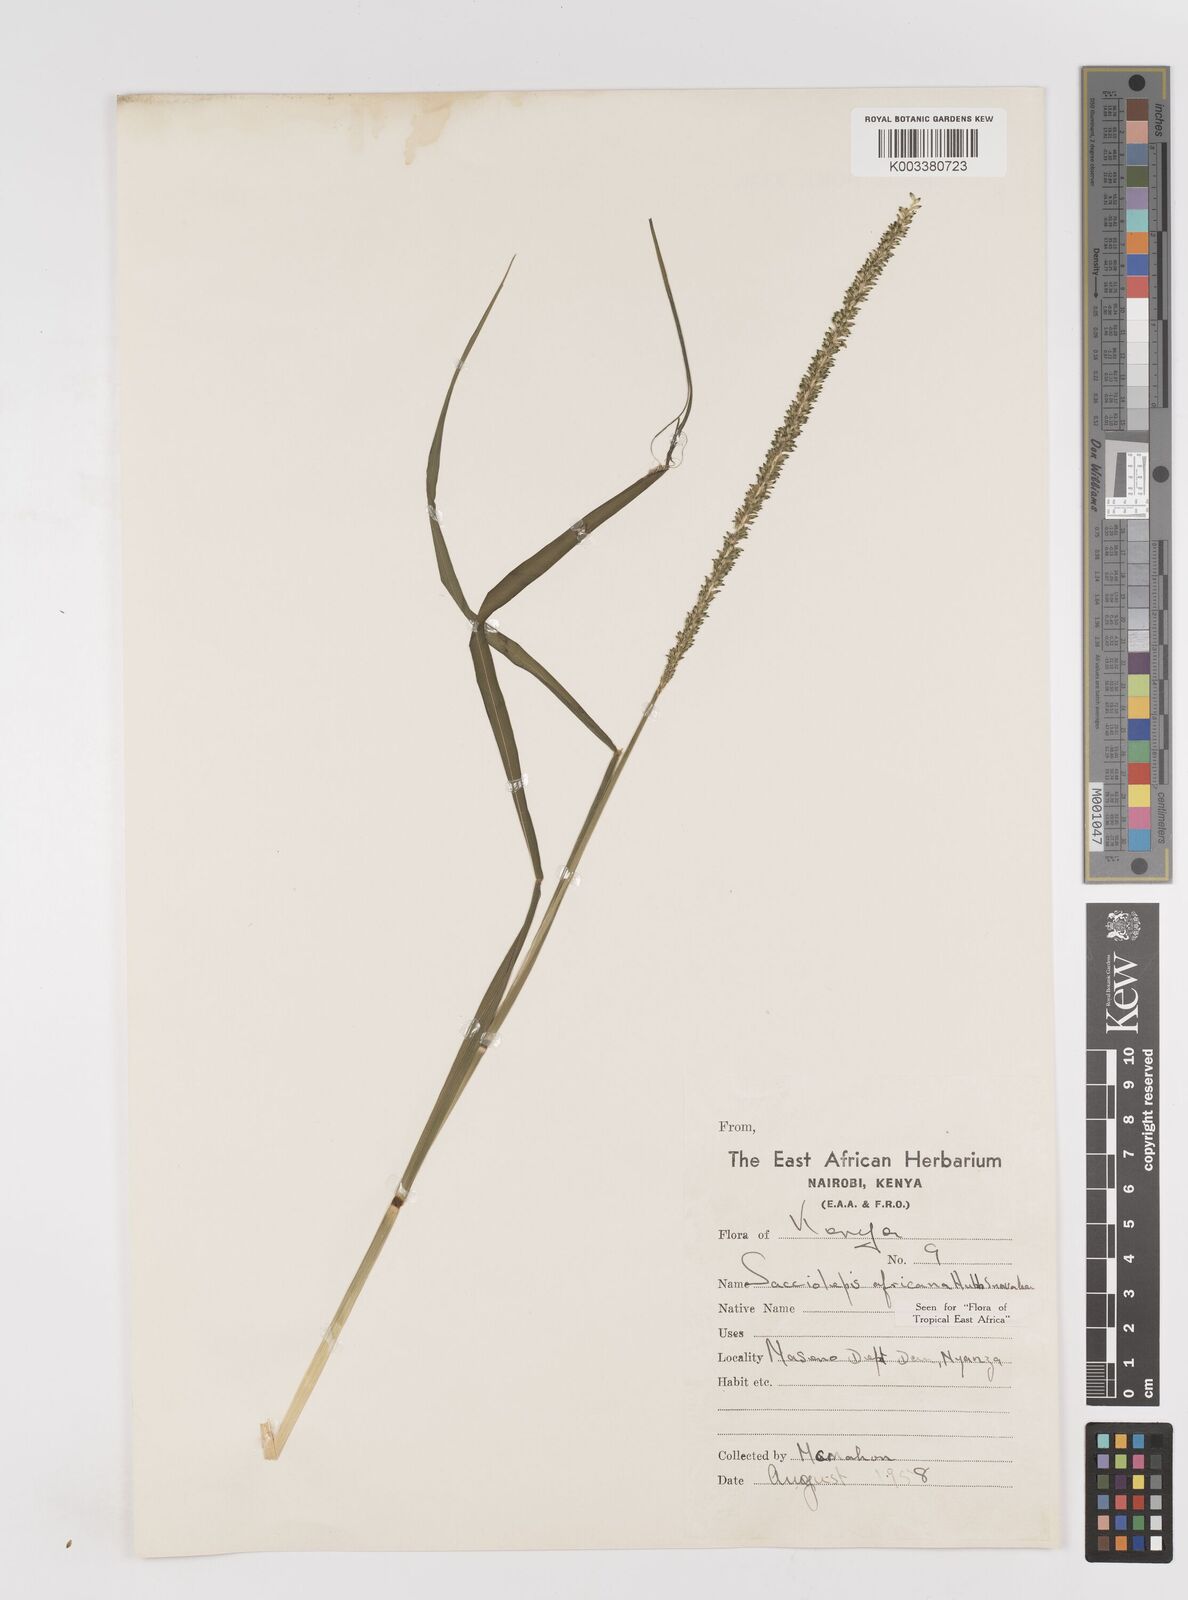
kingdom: Plantae
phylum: Tracheophyta
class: Liliopsida
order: Poales
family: Poaceae
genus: Sacciolepis
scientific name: Sacciolepis africana
